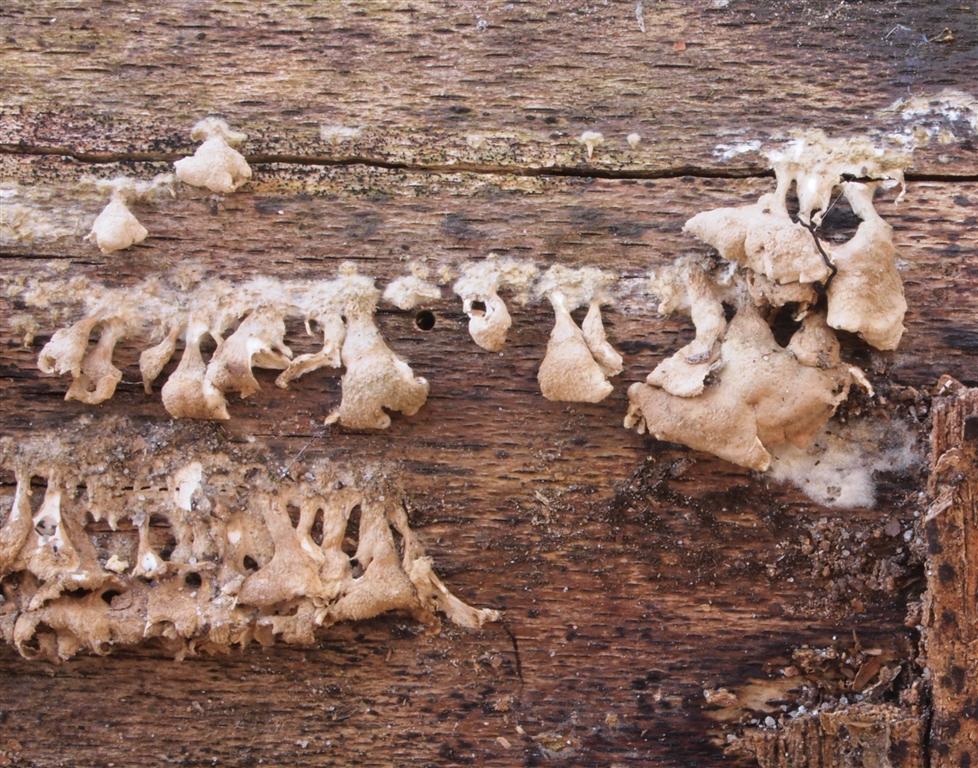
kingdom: Fungi
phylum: Basidiomycota
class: Agaricomycetes
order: Amylocorticiales
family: Amylocorticiaceae
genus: Plicaturopsis
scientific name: Plicaturopsis crispa
